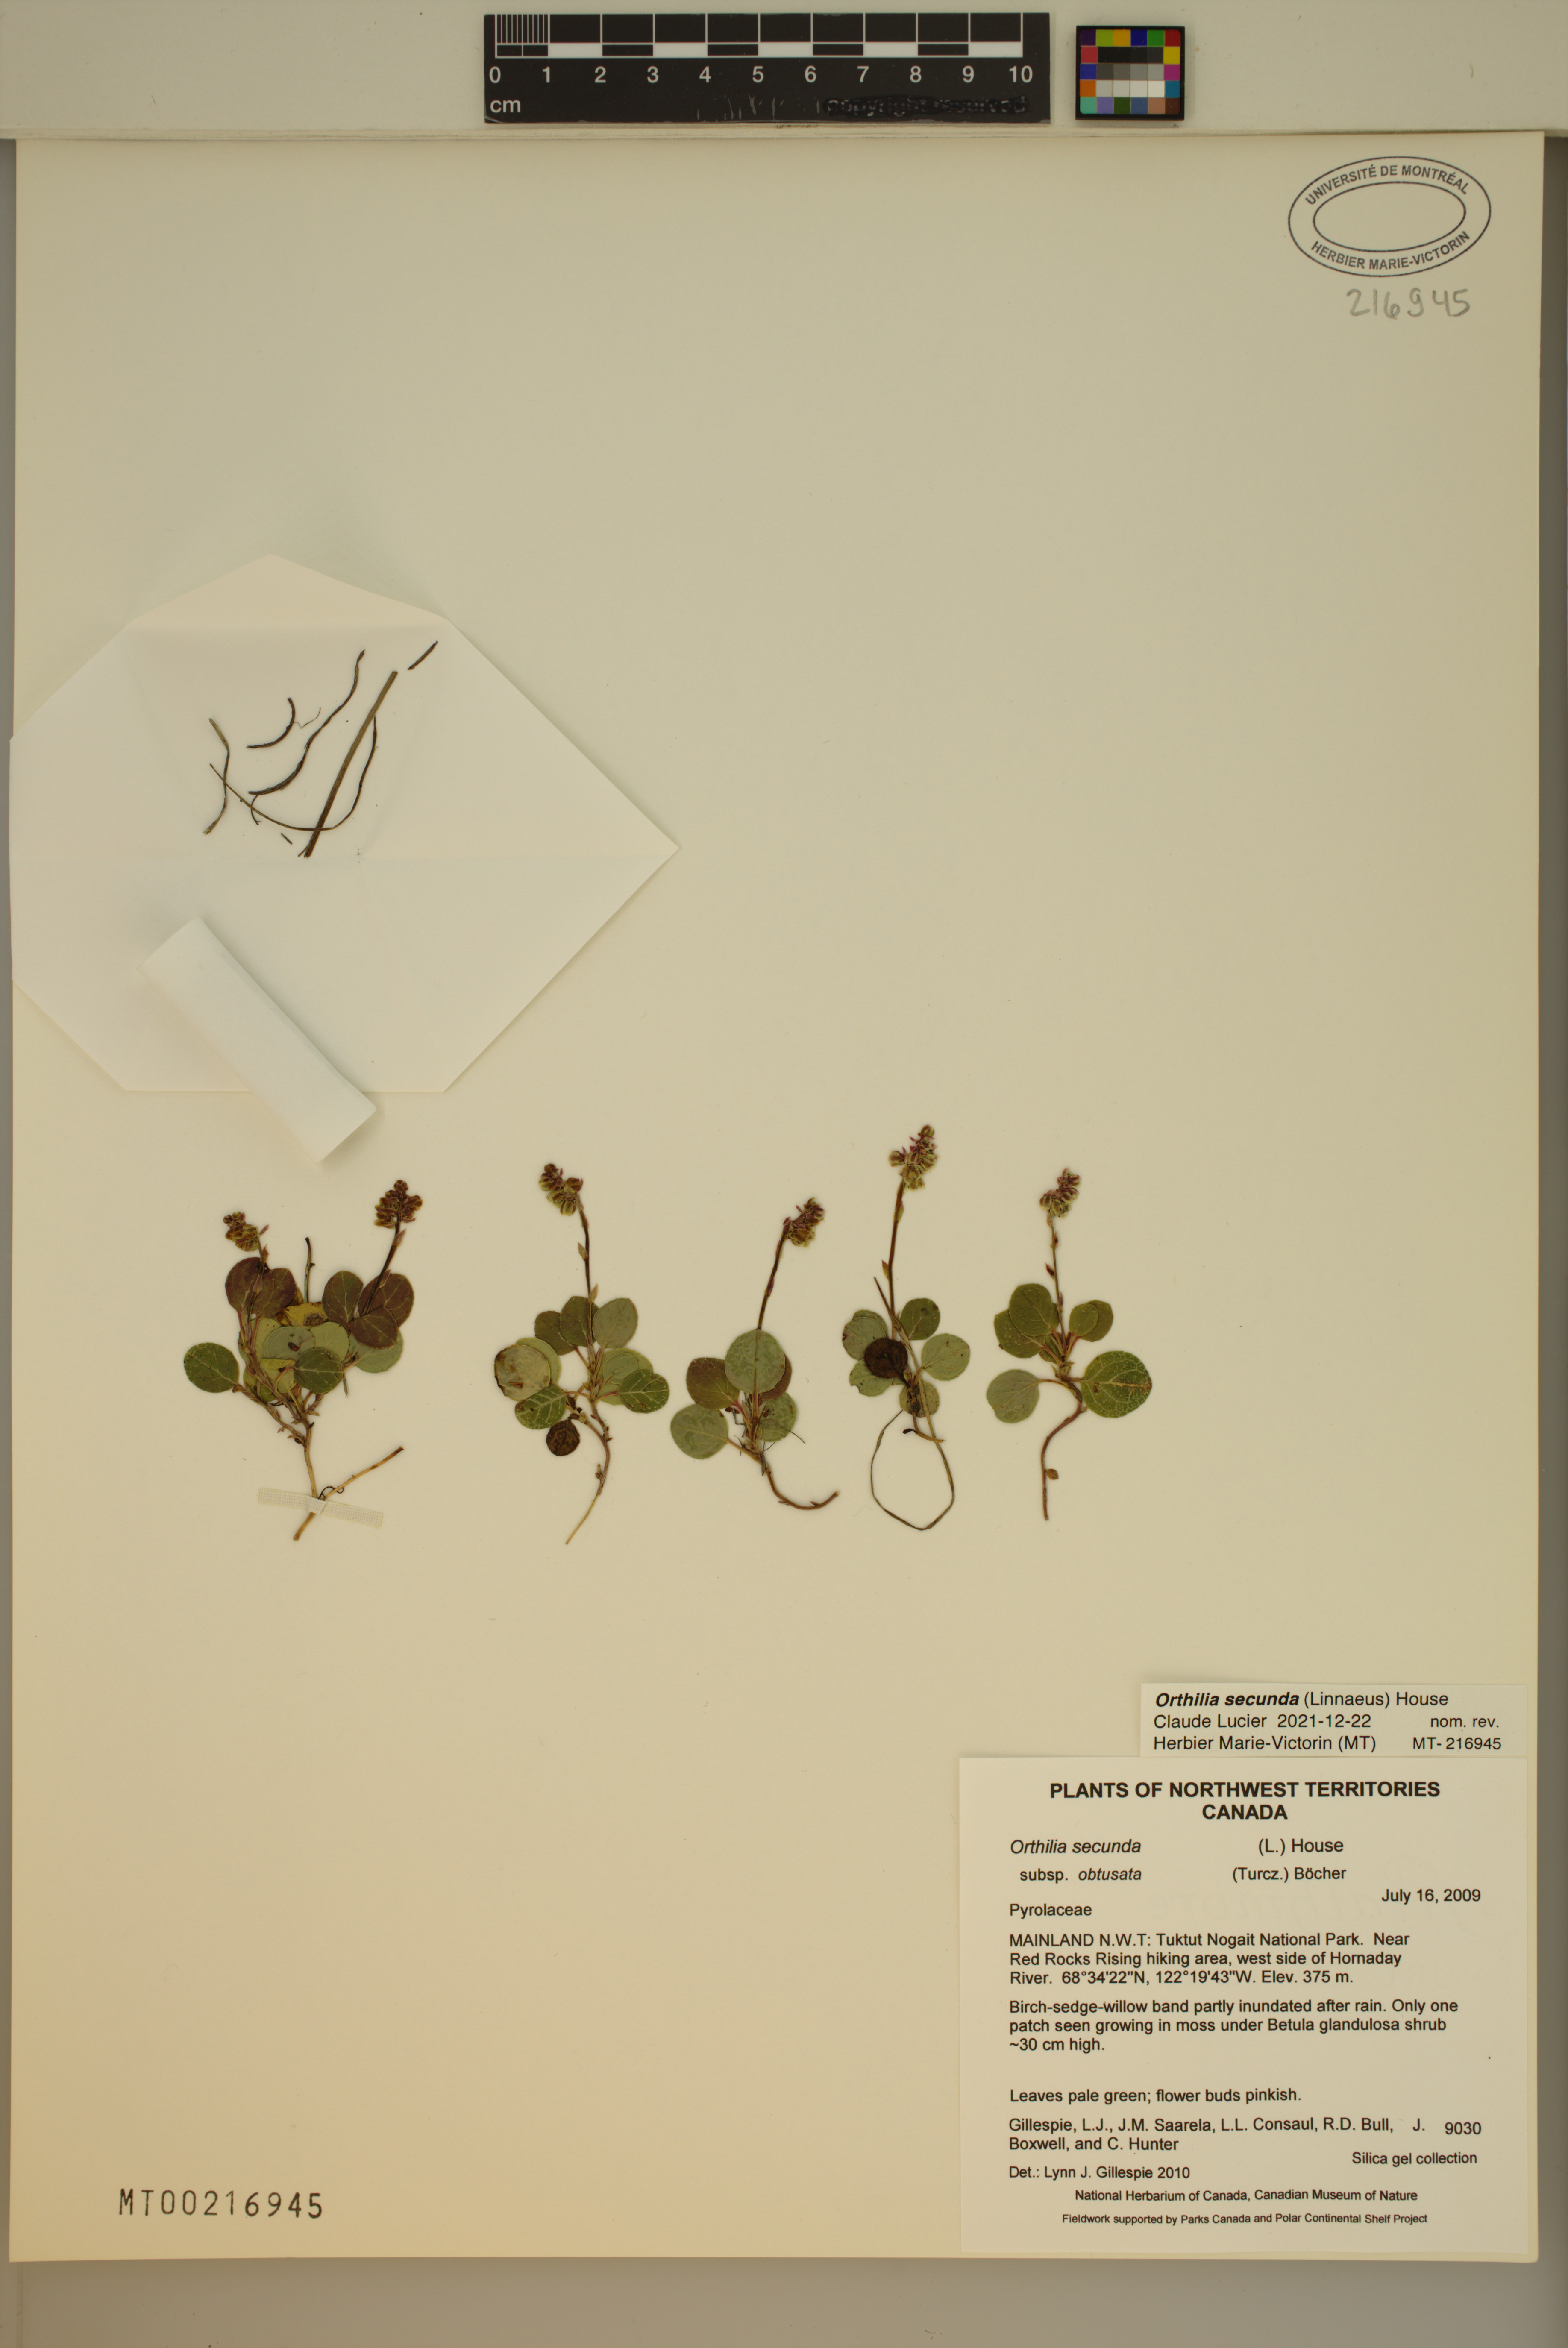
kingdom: Plantae
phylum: Tracheophyta
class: Magnoliopsida
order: Ericales
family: Ericaceae
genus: Orthilia
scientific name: Orthilia secunda
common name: One-sided orthilia
